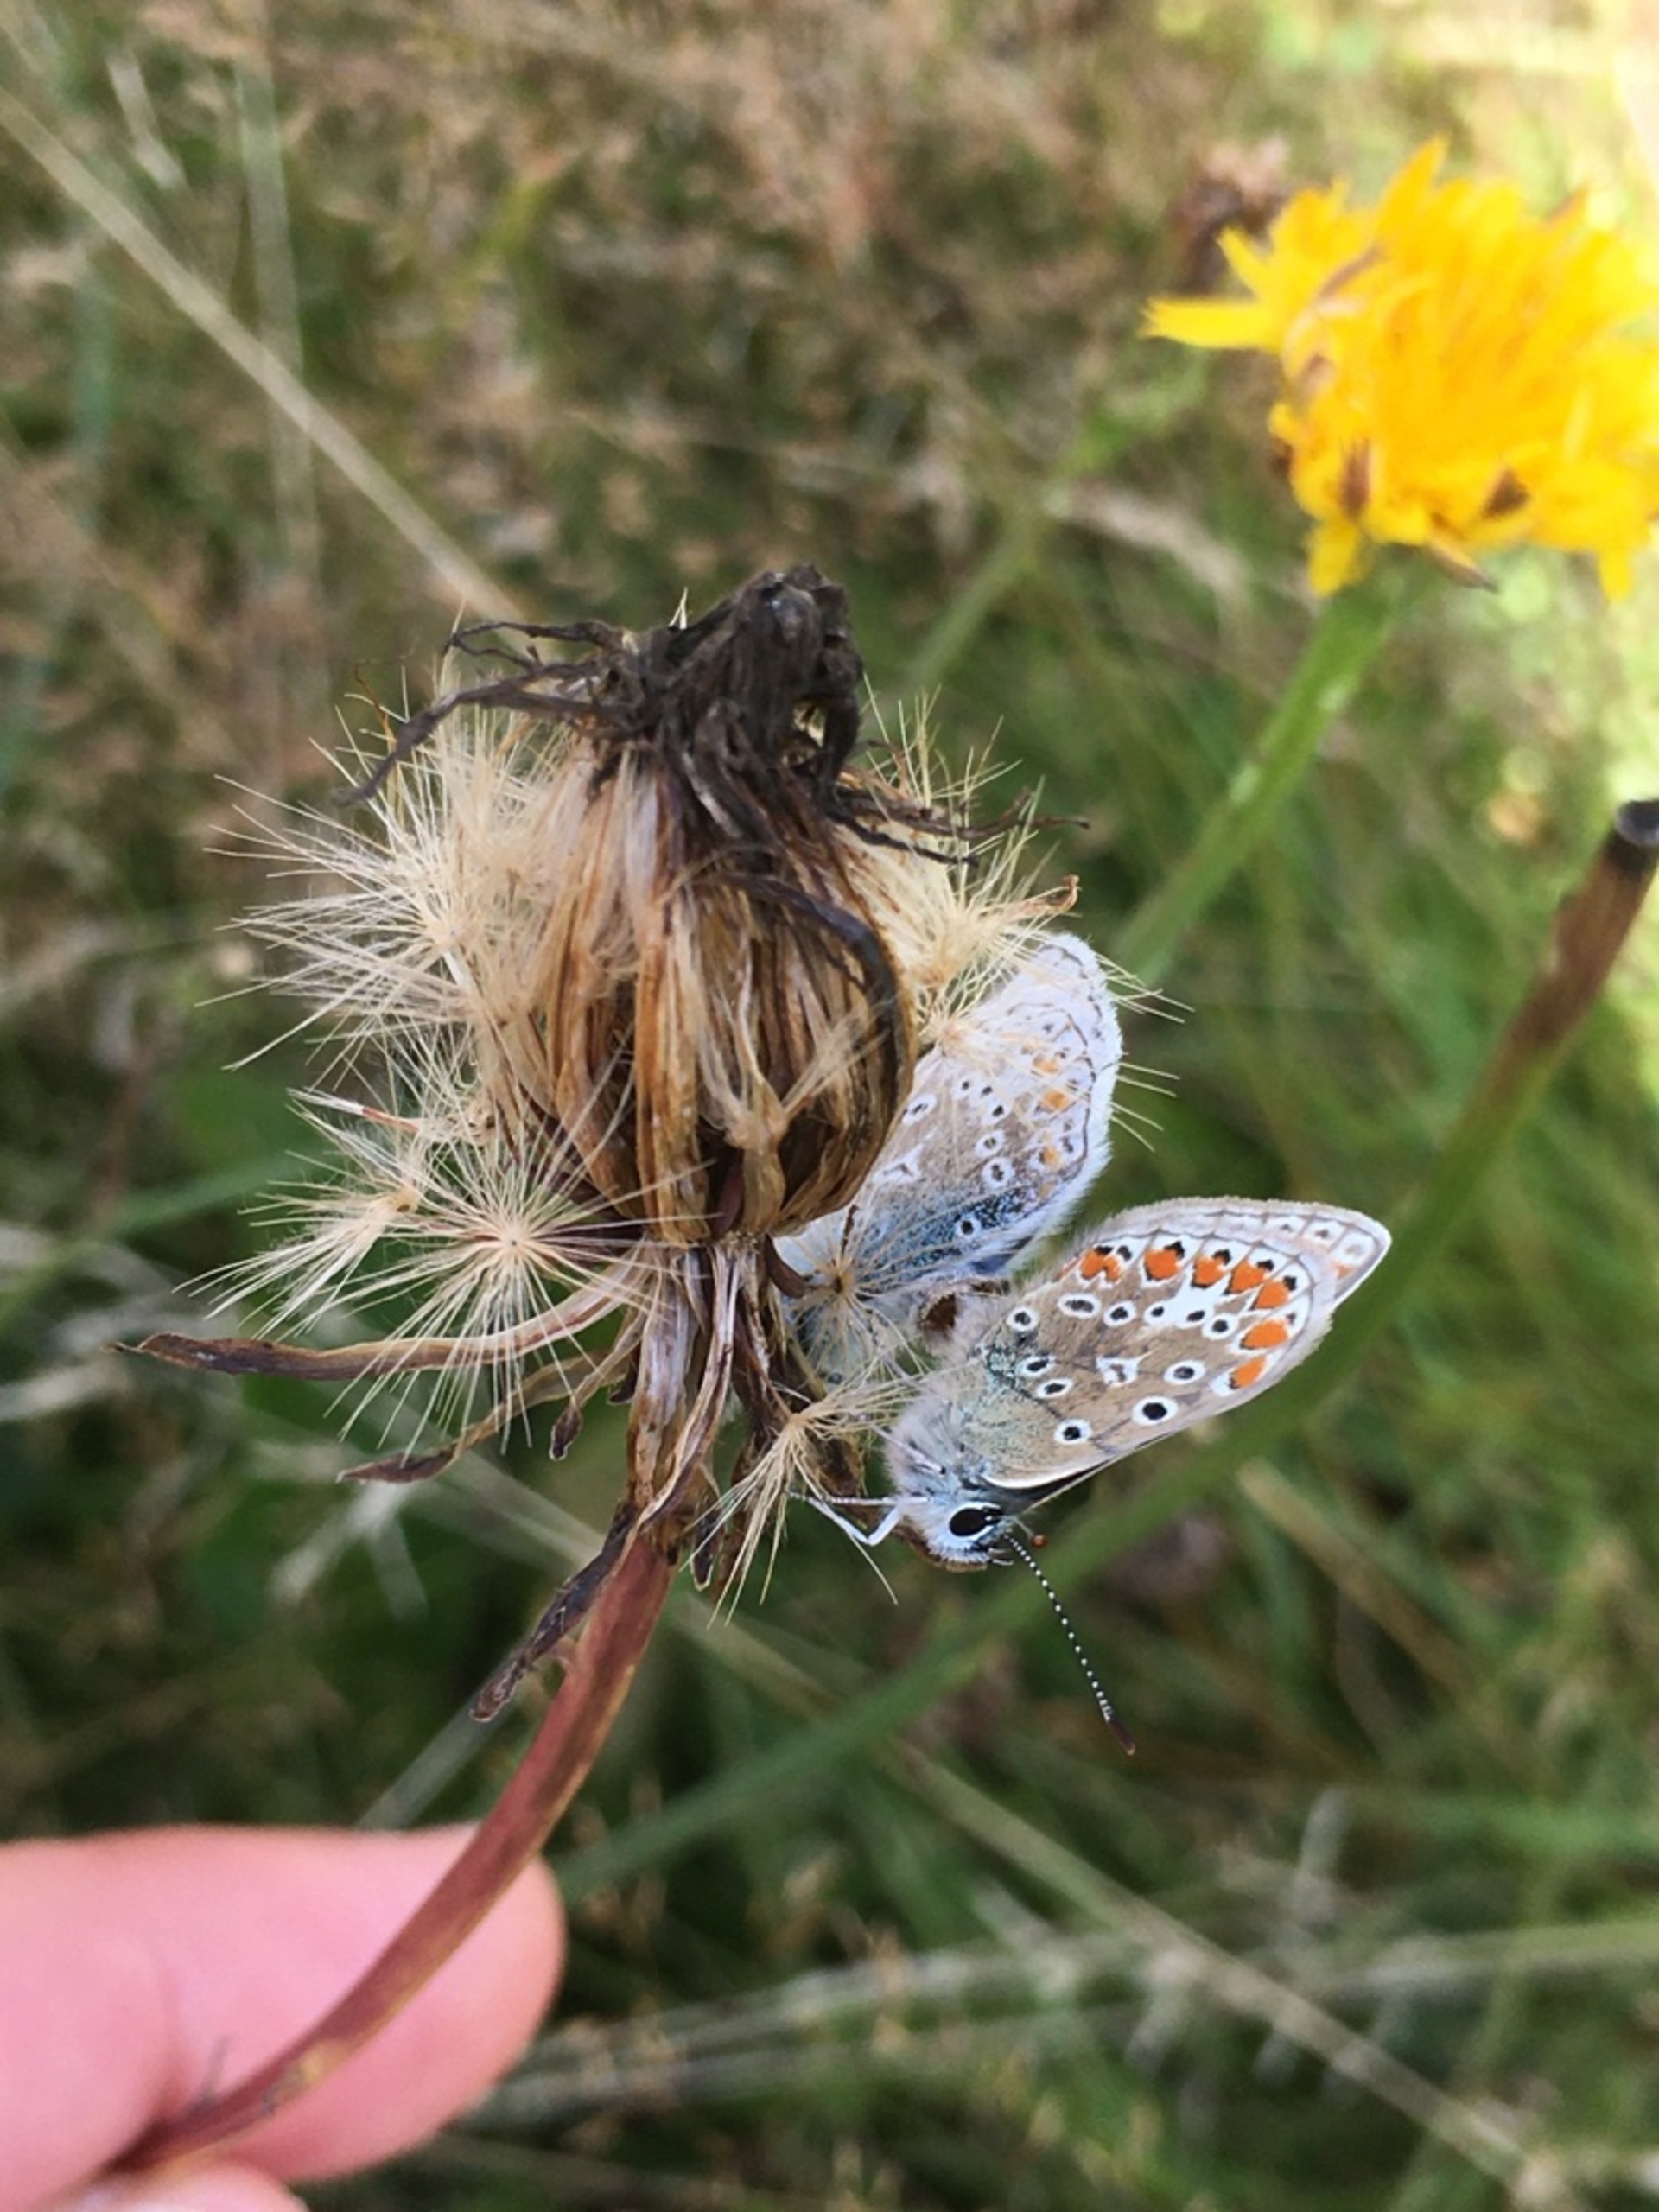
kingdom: Animalia
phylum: Arthropoda
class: Insecta
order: Lepidoptera
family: Lycaenidae
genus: Polyommatus
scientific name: Polyommatus icarus
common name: Almindelig blåfugl
